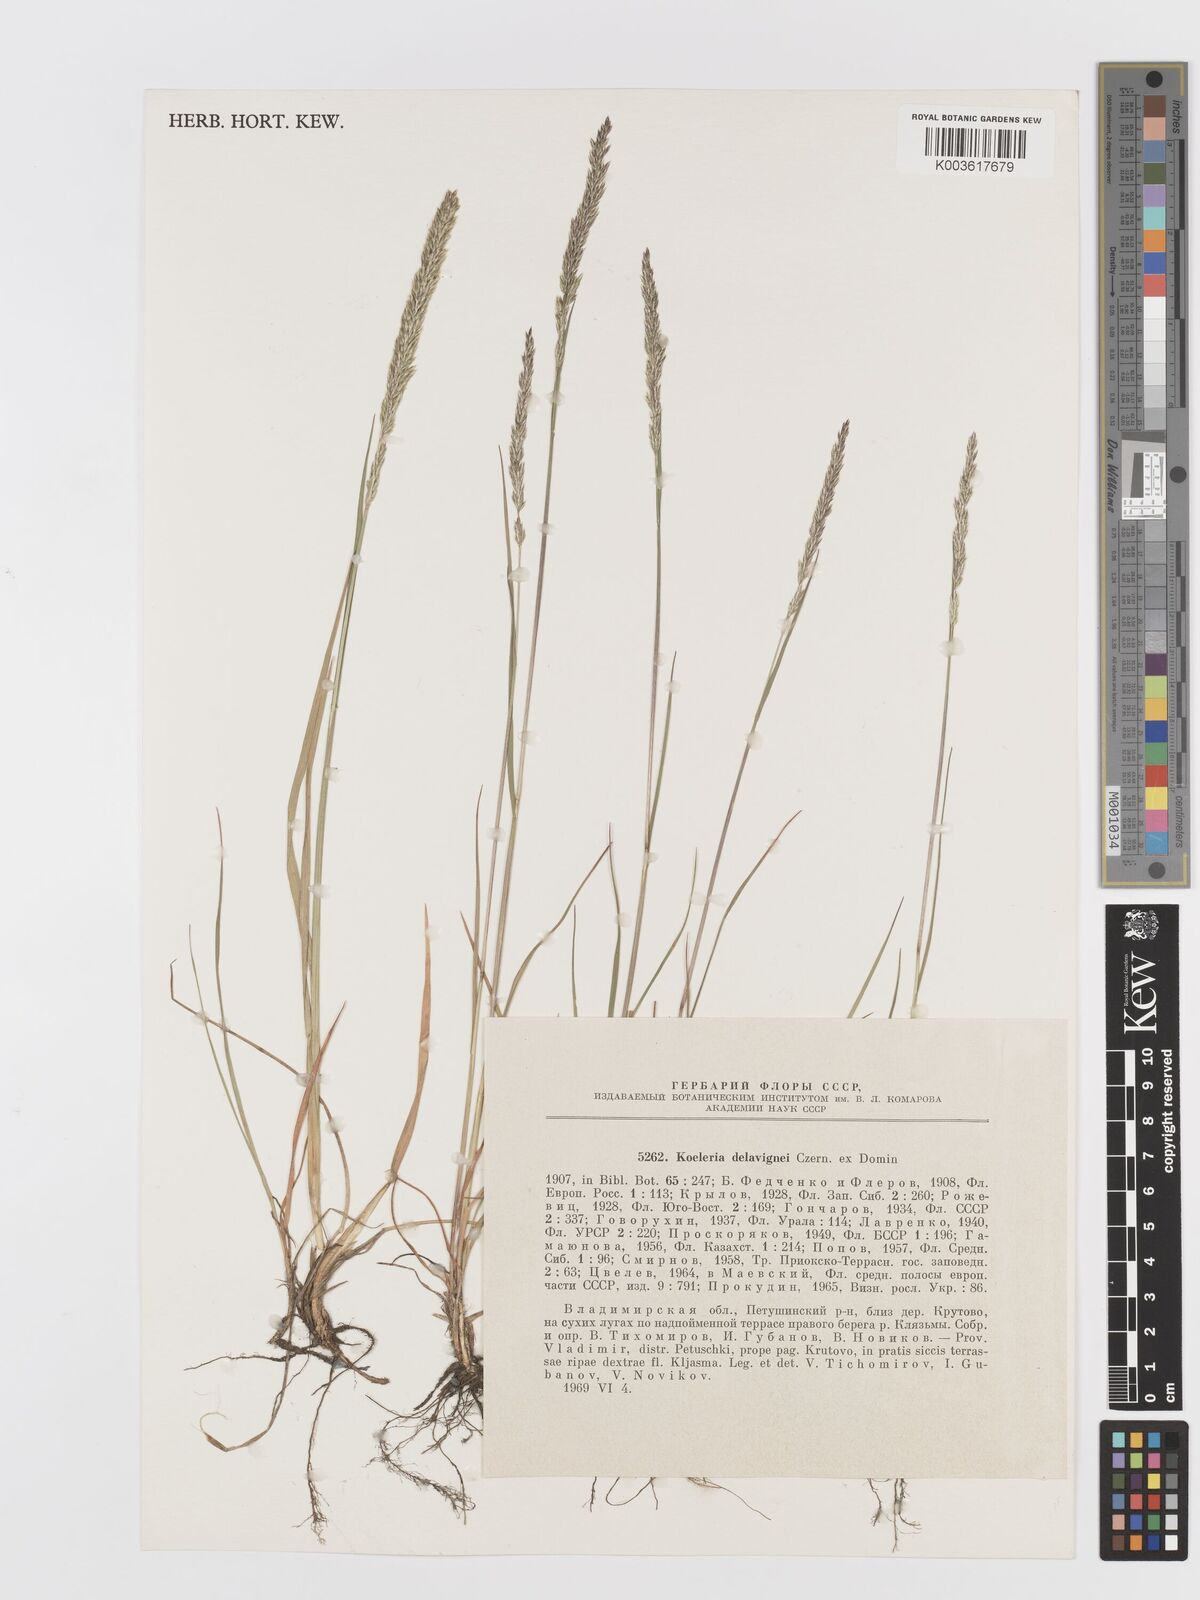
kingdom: Plantae
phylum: Tracheophyta
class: Liliopsida
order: Poales
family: Poaceae
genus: Koeleria
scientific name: Koeleria delavignei
